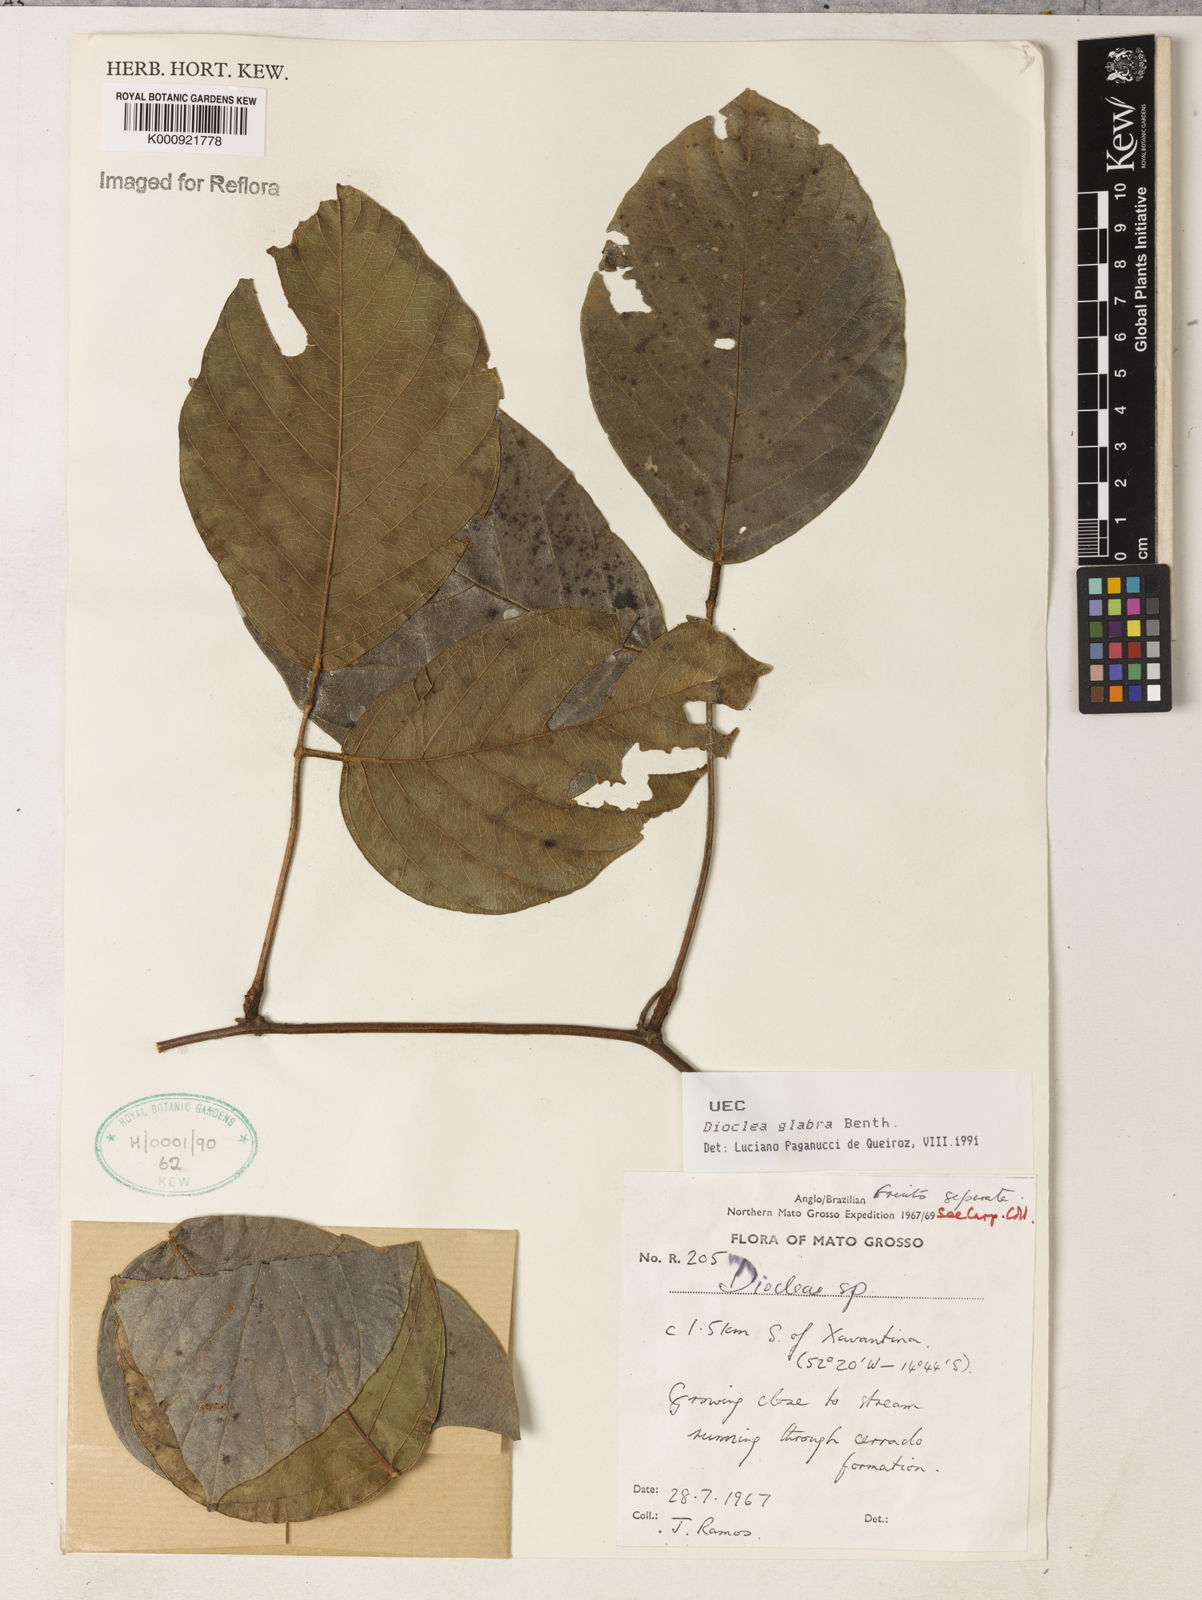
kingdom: Plantae
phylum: Tracheophyta
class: Magnoliopsida
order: Fabales
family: Fabaceae
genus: Macropsychanthus
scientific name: Macropsychanthus glaber
